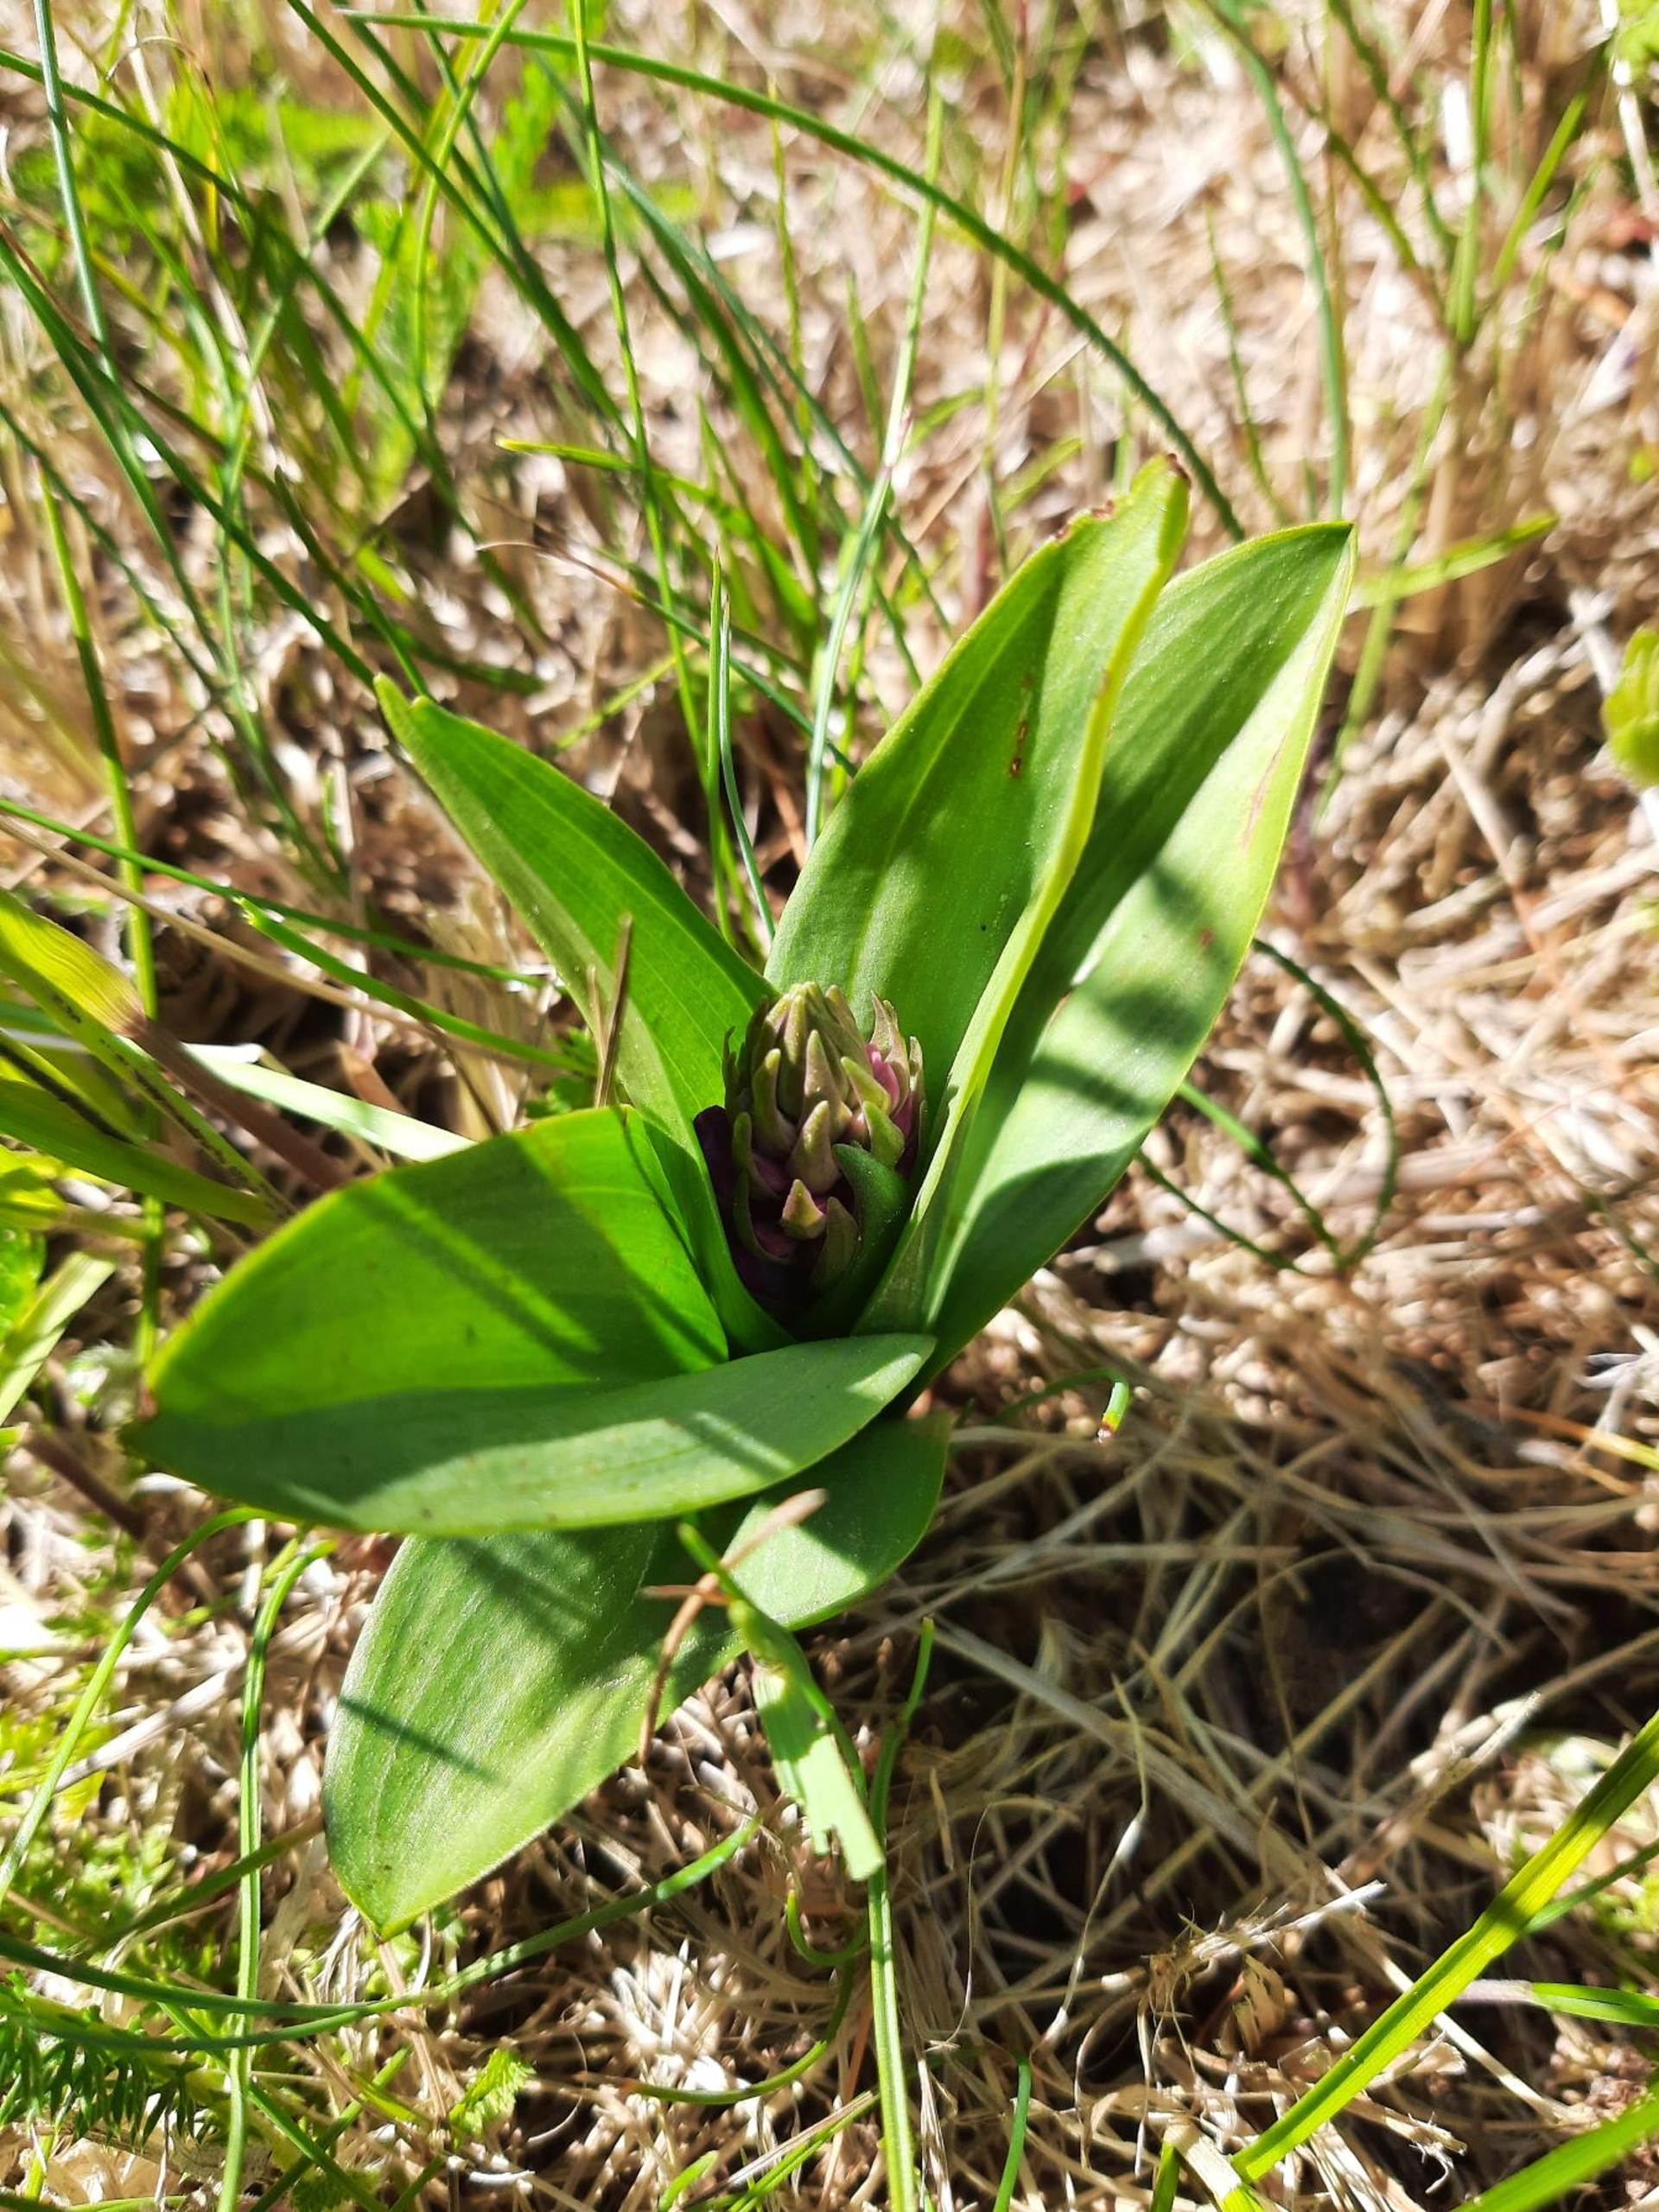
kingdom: Plantae
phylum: Tracheophyta
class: Liliopsida
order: Asparagales
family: Orchidaceae
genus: Dactylorhiza
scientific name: Dactylorhiza majalis
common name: Purpur-gøgeurt
